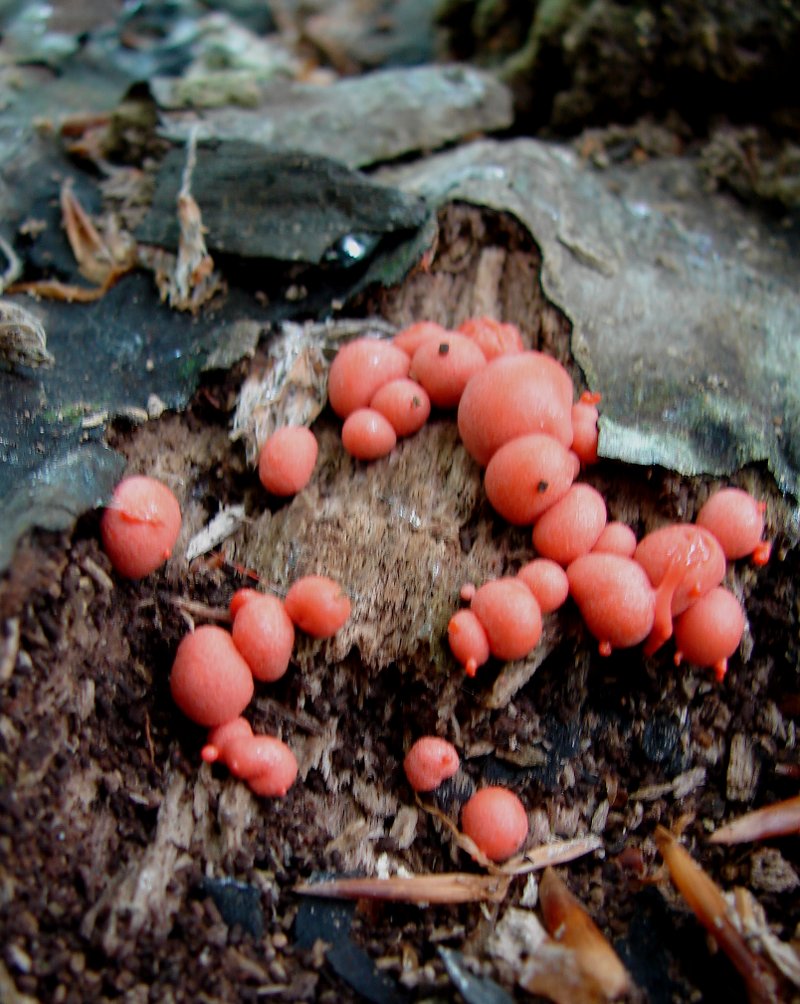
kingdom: Protozoa
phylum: Mycetozoa
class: Myxomycetes
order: Cribrariales
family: Tubiferaceae
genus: Lycogala
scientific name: Lycogala epidendrum
